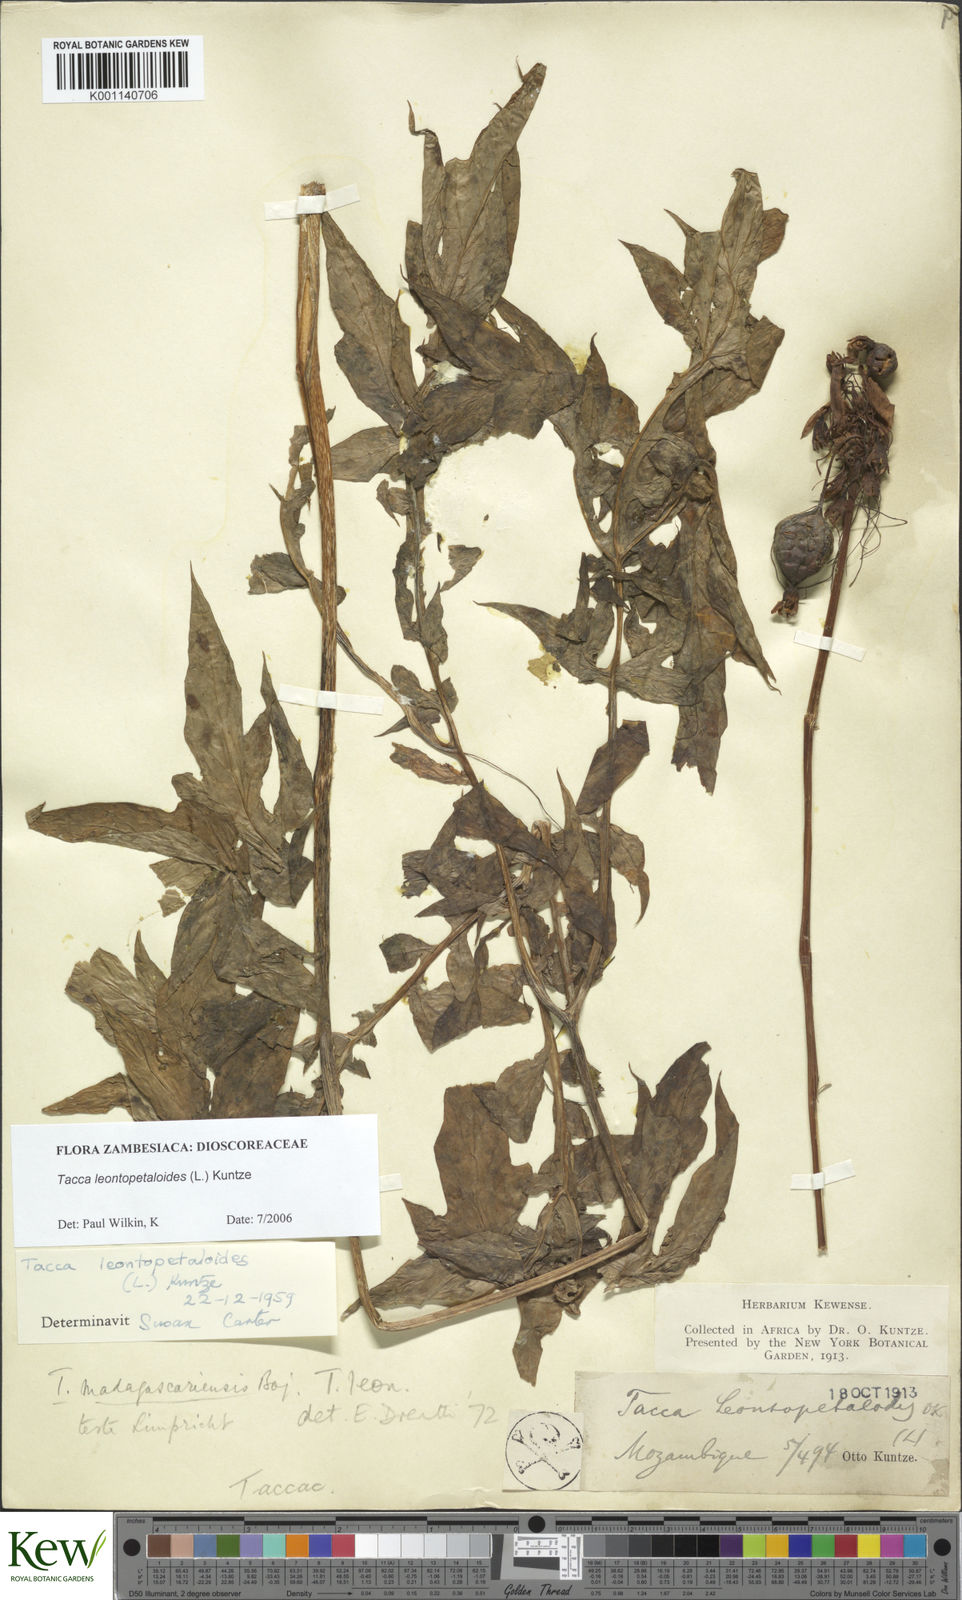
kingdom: Plantae
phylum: Tracheophyta
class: Liliopsida
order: Dioscoreales
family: Dioscoreaceae
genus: Tacca
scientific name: Tacca leontopetaloides
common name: Arrowroot
